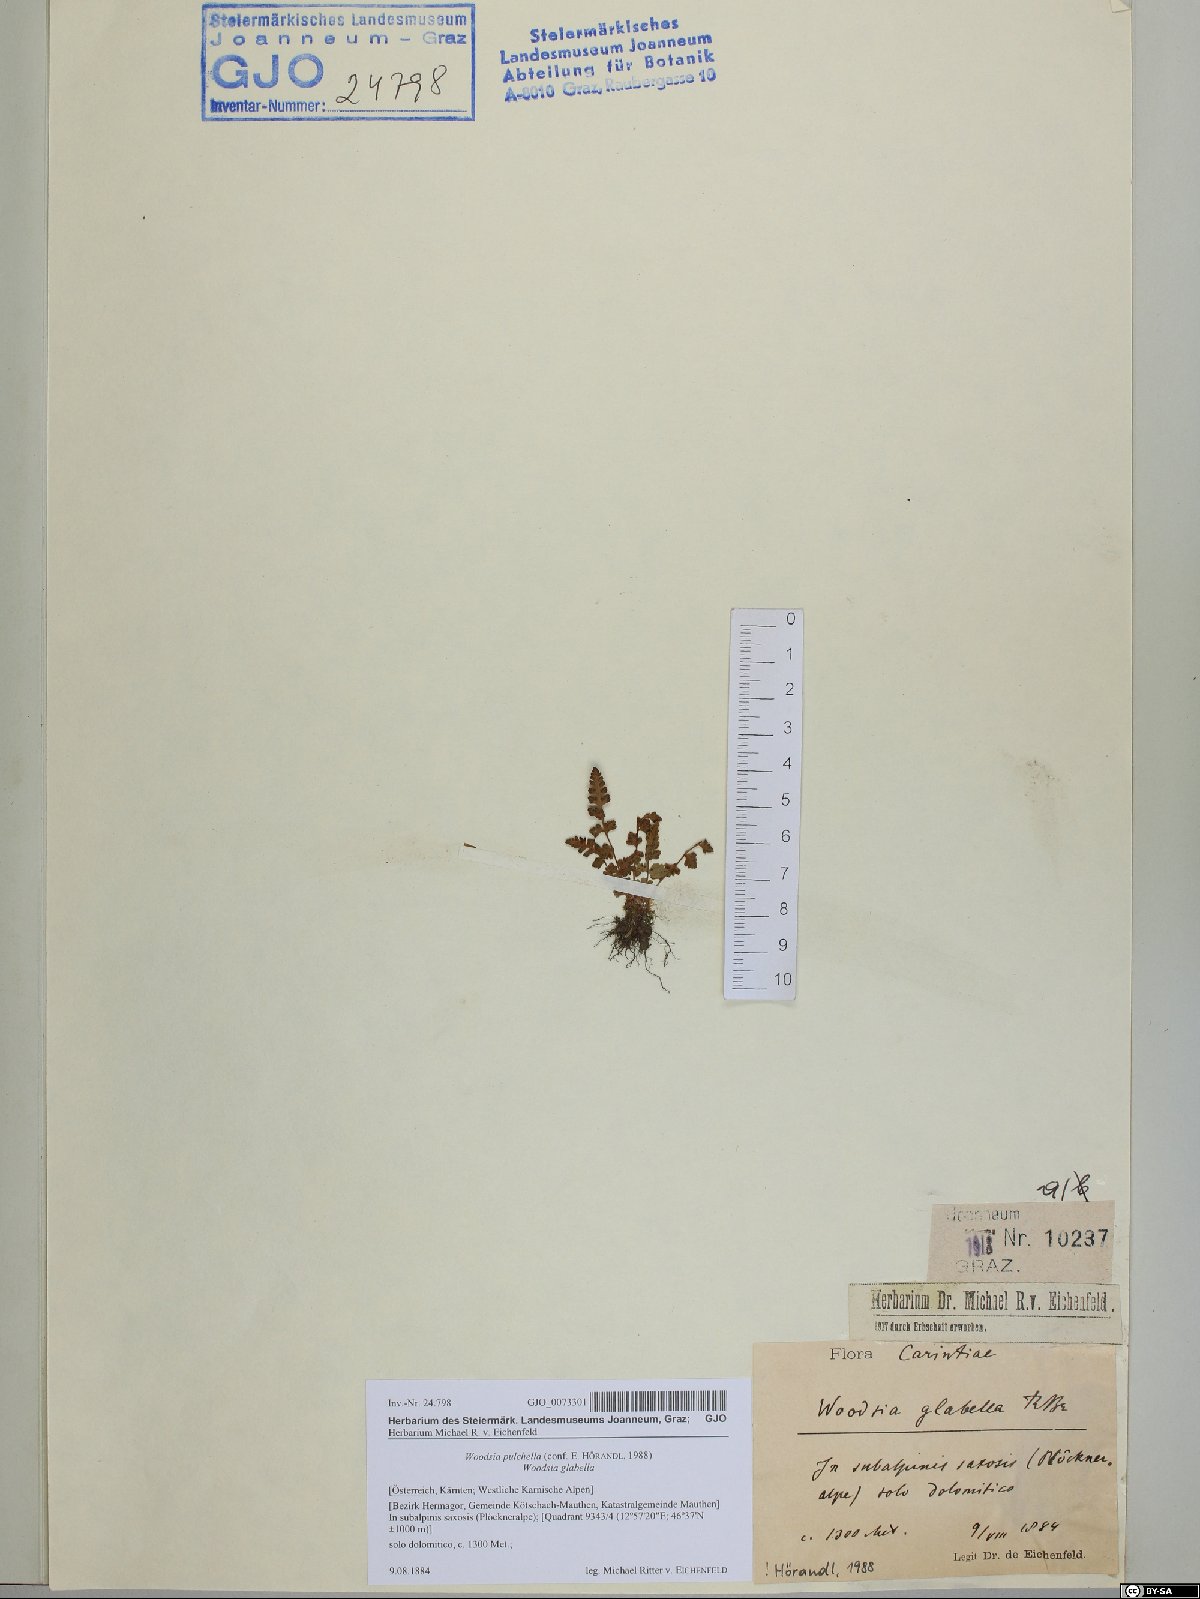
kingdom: Plantae
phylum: Tracheophyta
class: Polypodiopsida
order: Polypodiales
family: Woodsiaceae
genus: Woodsia
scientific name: Woodsia pulchella
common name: Graceful woodsia
